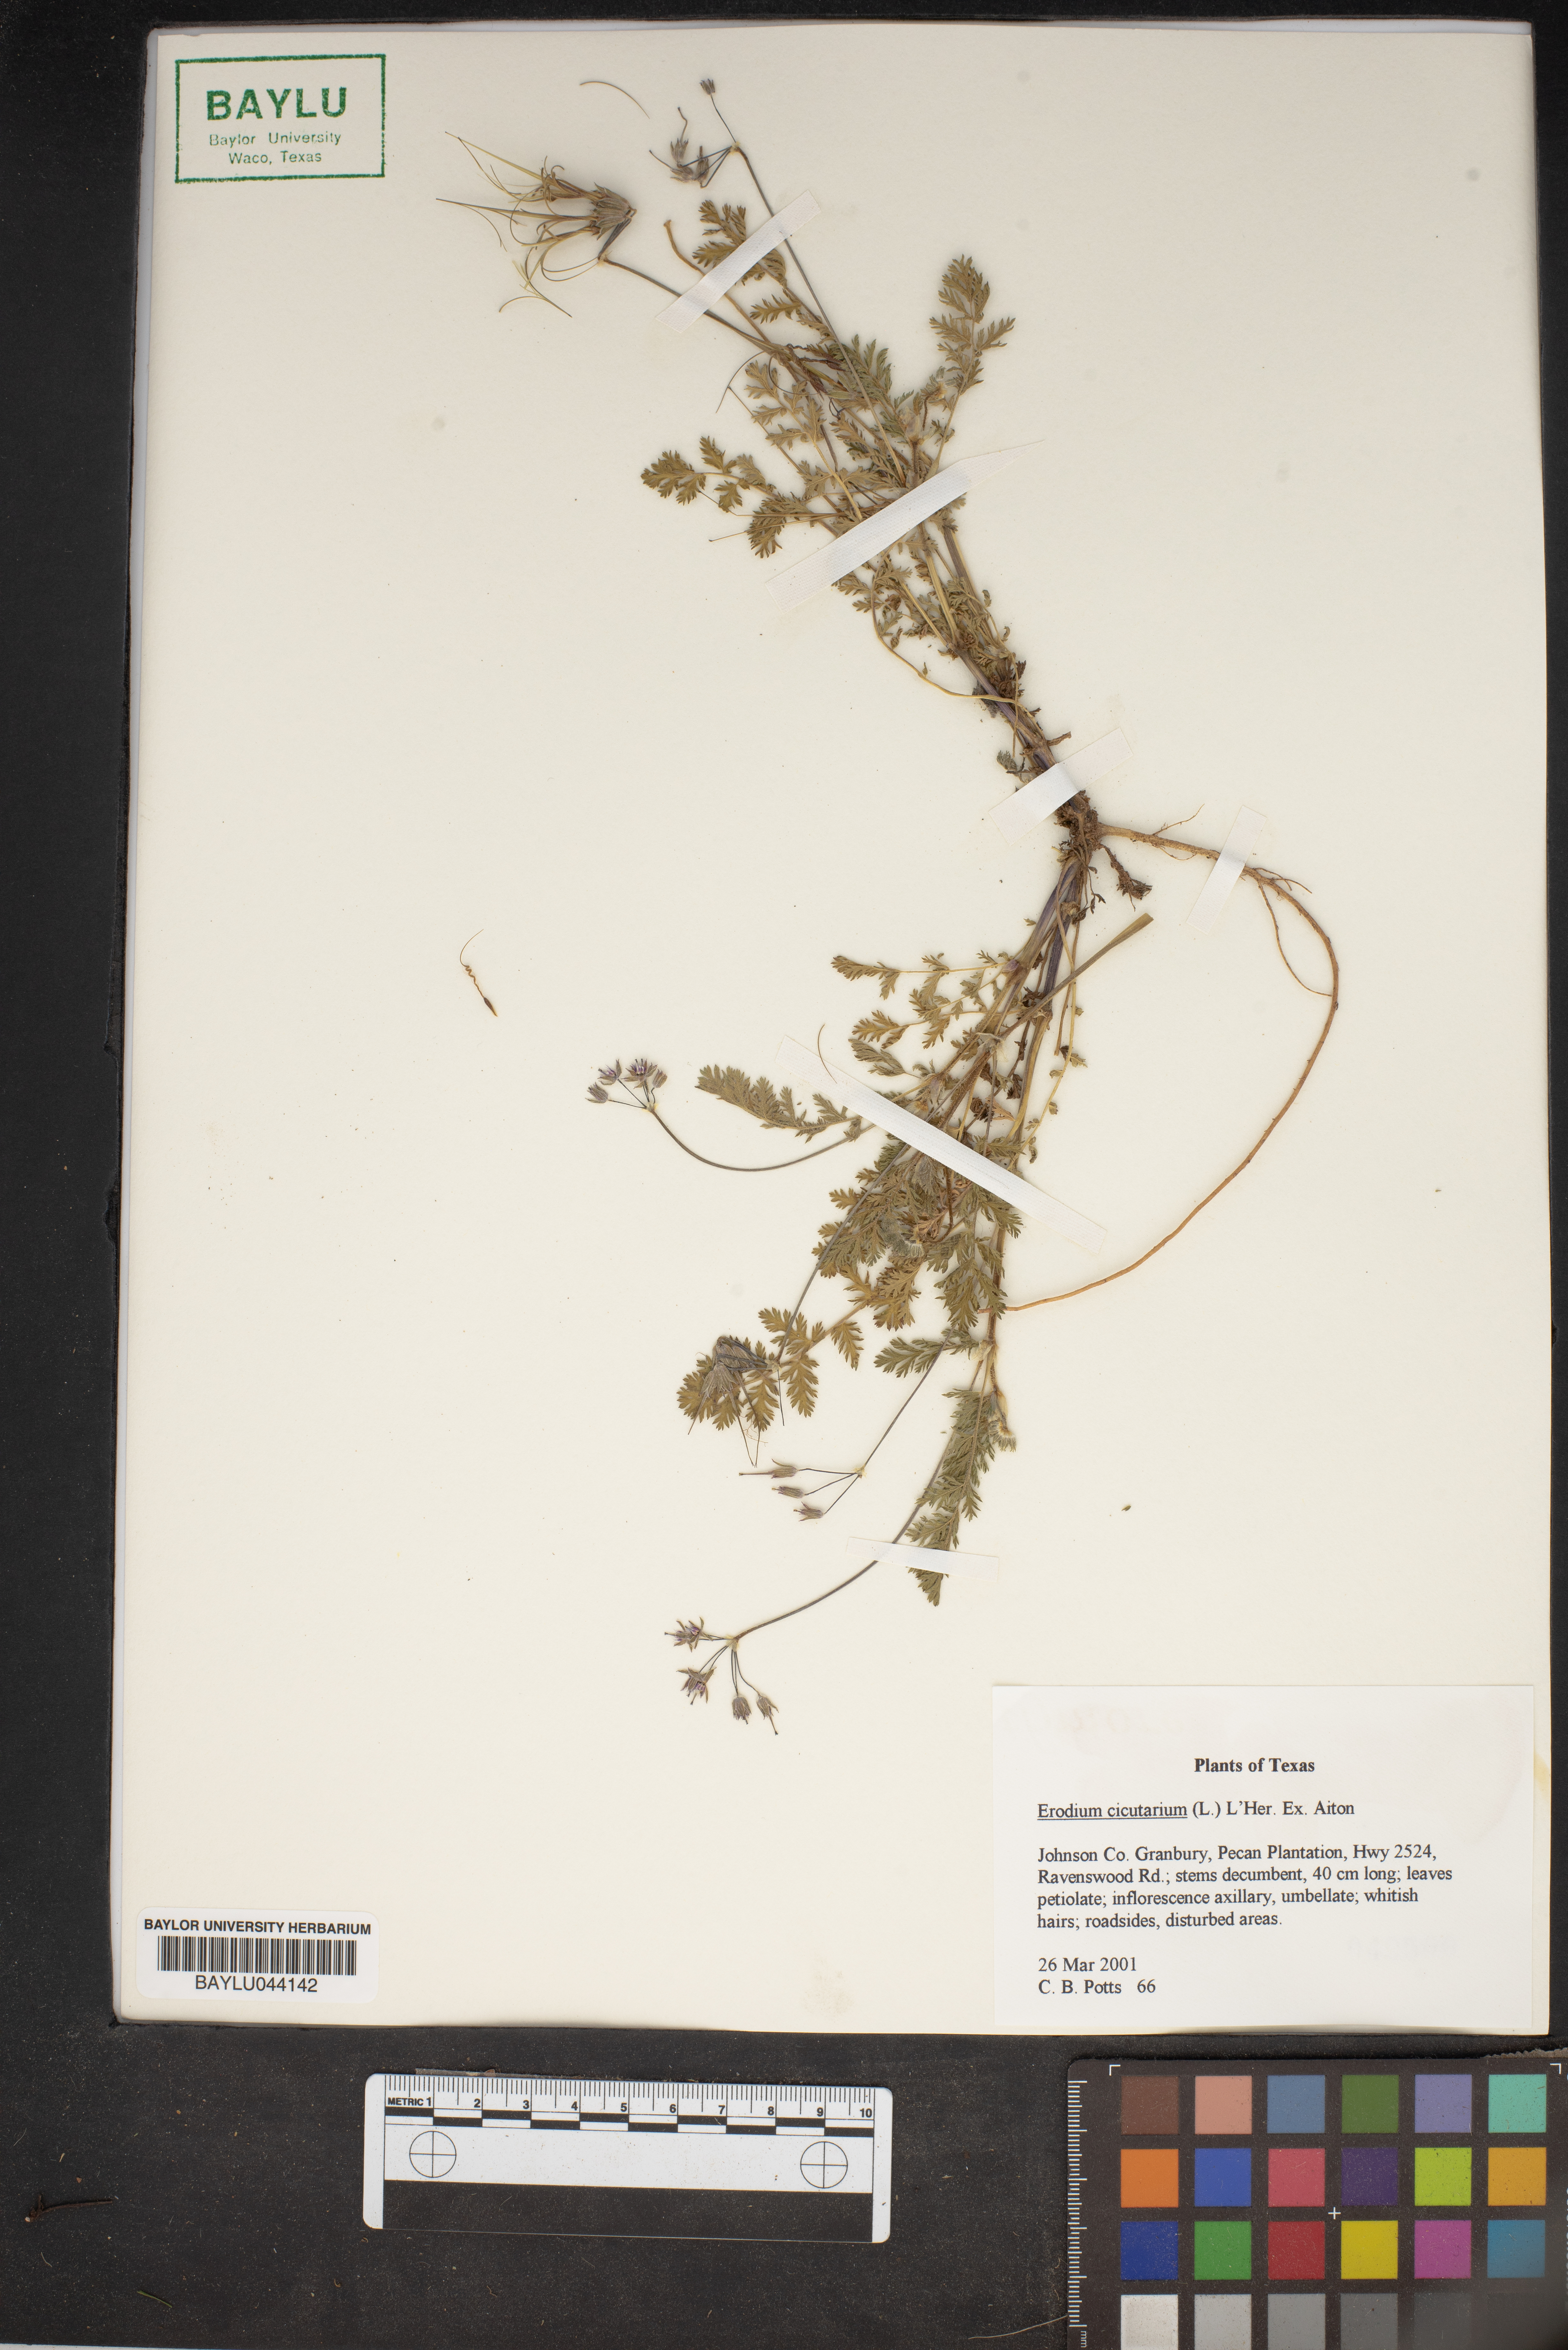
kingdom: Plantae
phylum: Tracheophyta
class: Magnoliopsida
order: Geraniales
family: Geraniaceae
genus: Erodium
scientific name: Erodium cicutarium
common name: Common stork's-bill
